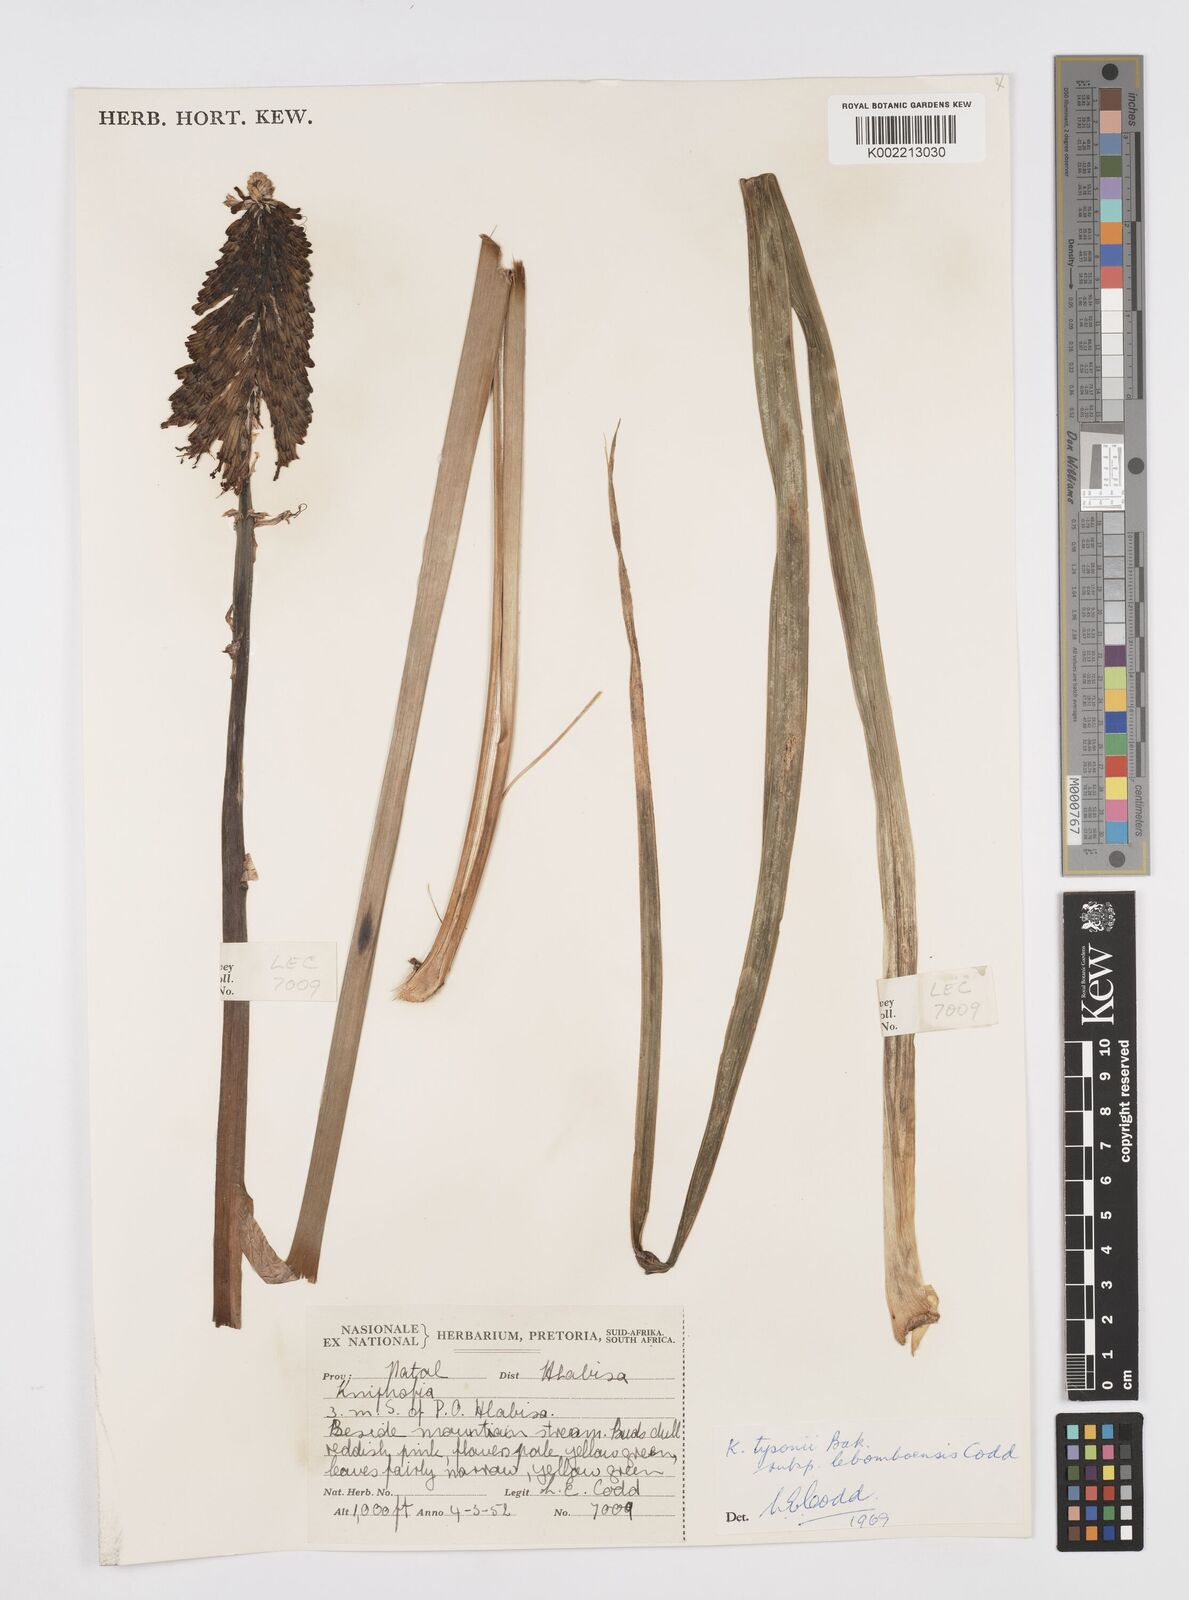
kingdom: Plantae
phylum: Tracheophyta
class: Liliopsida
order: Asparagales
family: Asphodelaceae
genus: Kniphofia
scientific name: Kniphofia tysonii
